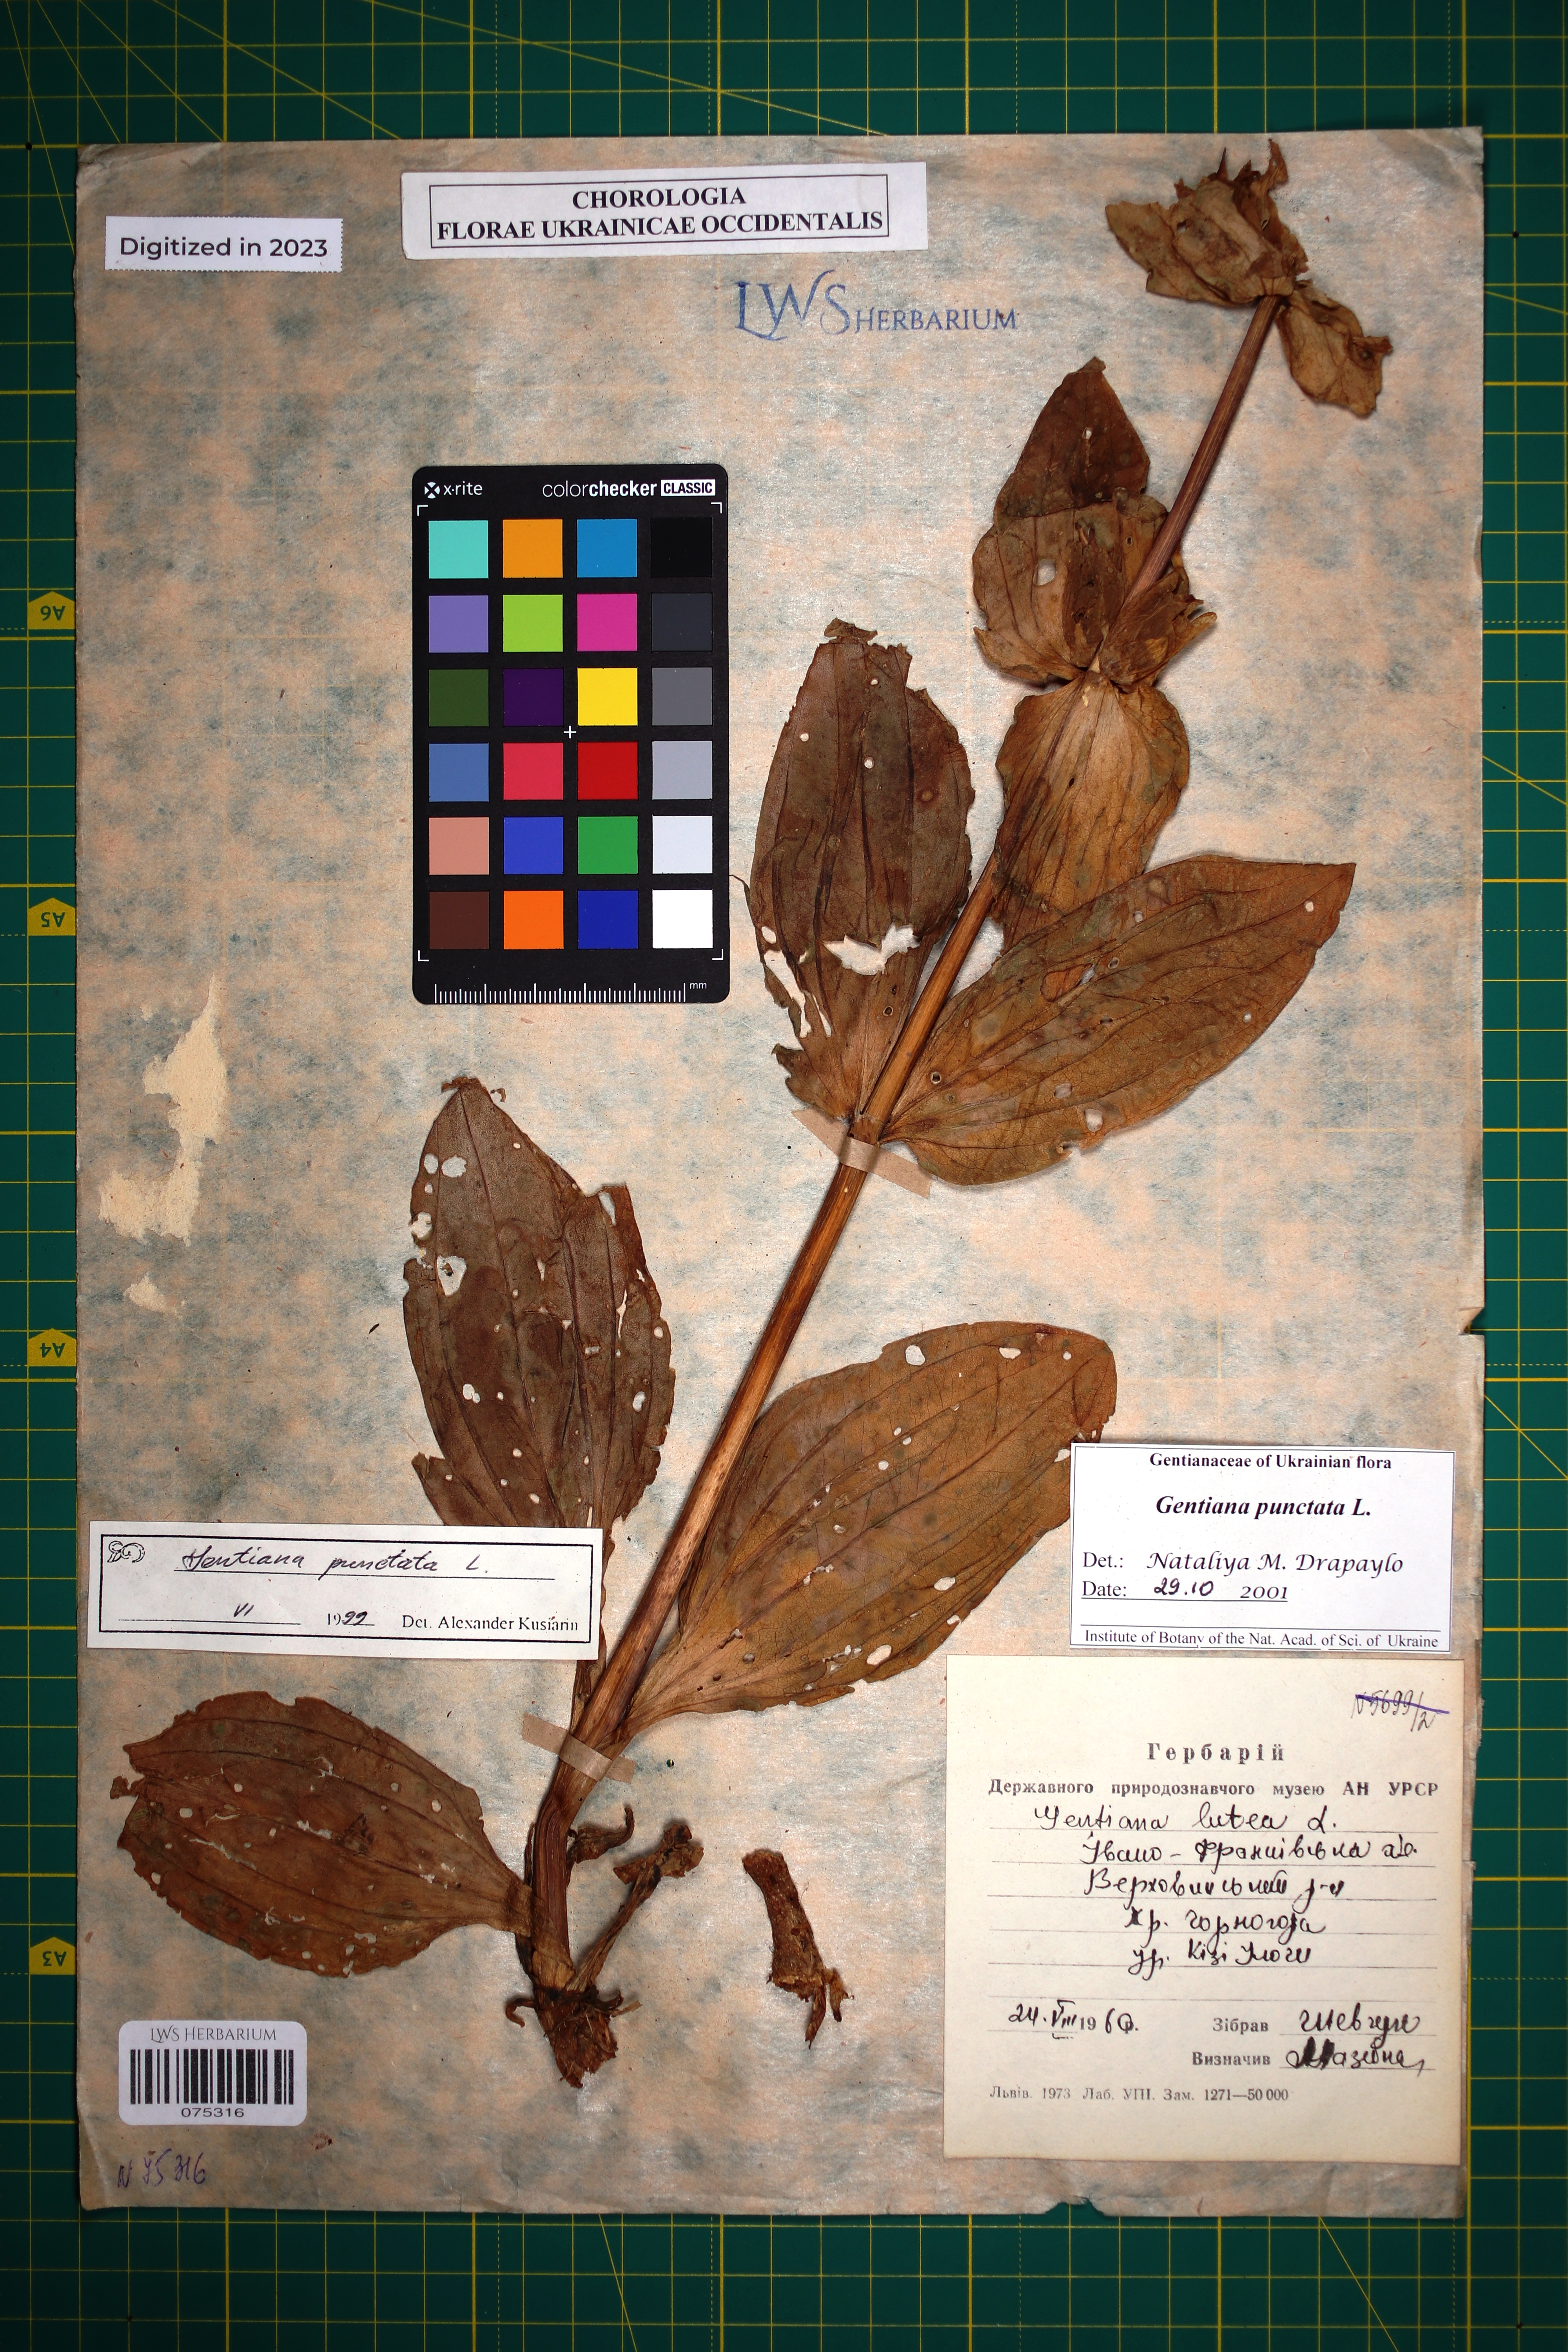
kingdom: Plantae
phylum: Tracheophyta
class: Magnoliopsida
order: Gentianales
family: Gentianaceae
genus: Gentiana
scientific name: Gentiana punctata
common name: Spotted gentian
